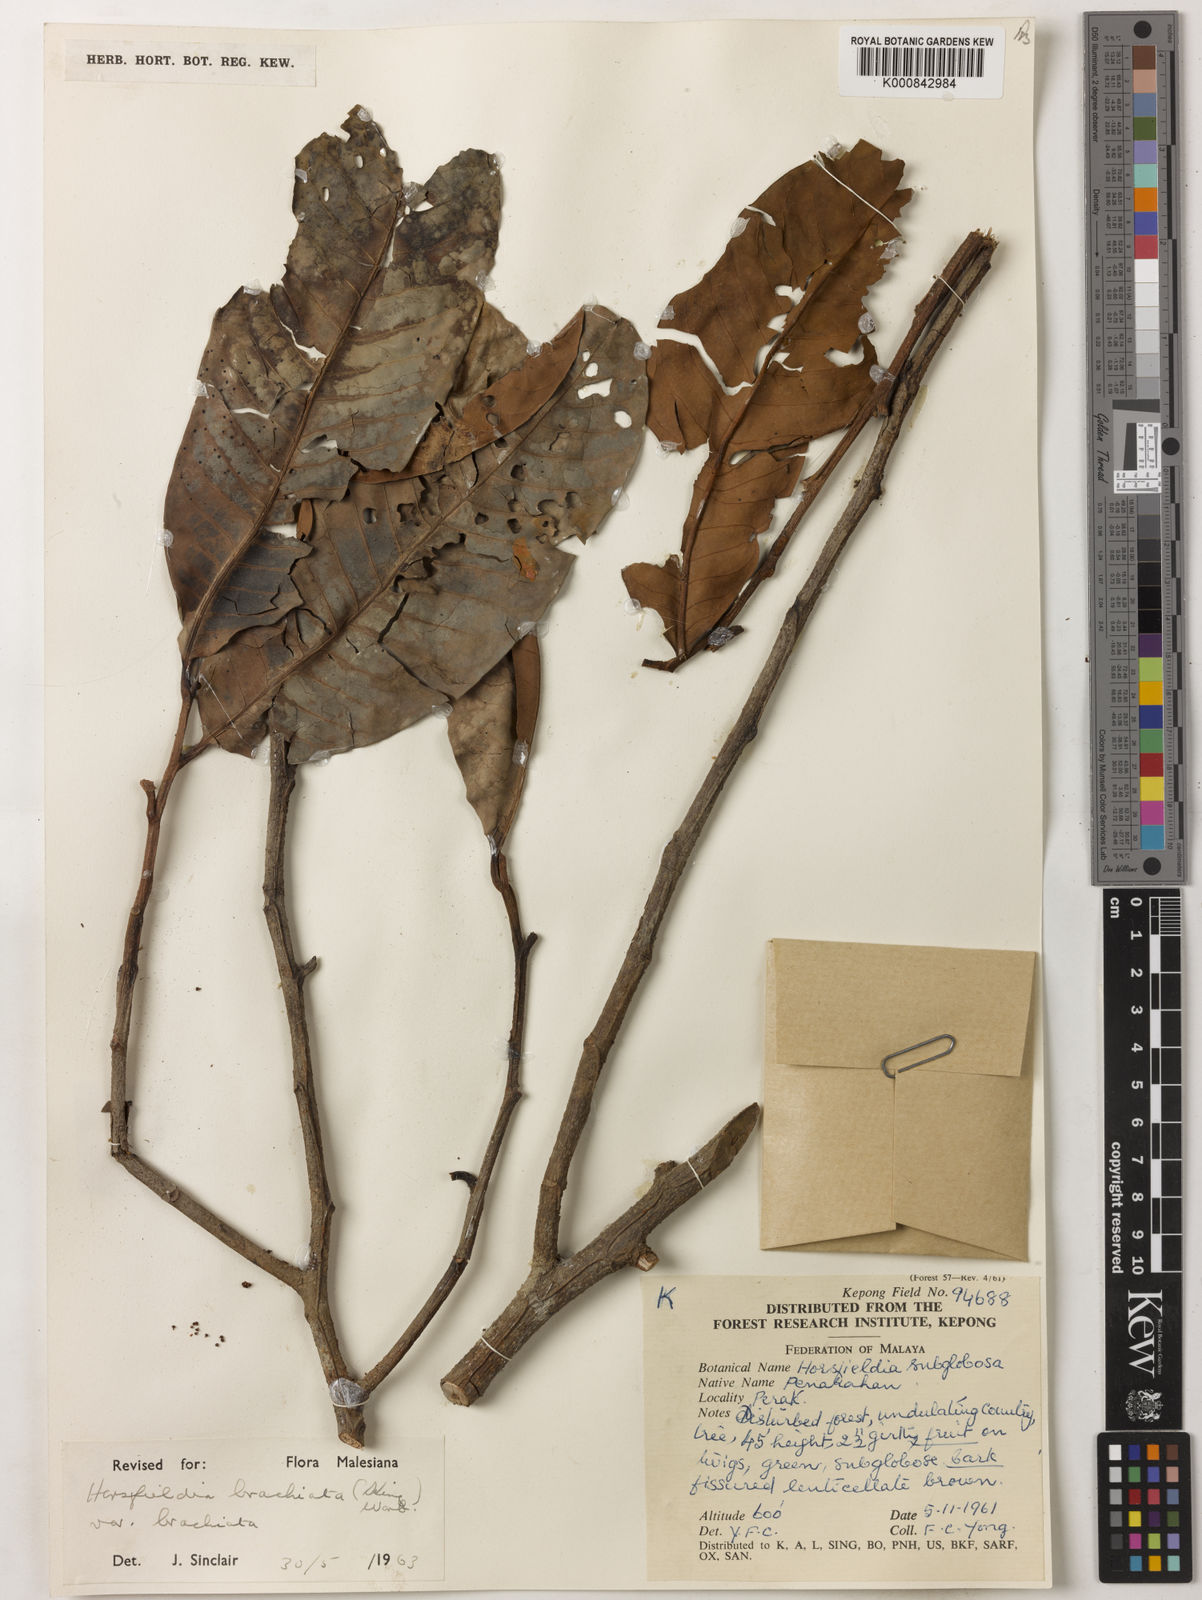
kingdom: Plantae
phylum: Tracheophyta
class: Magnoliopsida
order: Magnoliales
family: Myristicaceae
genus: Horsfieldia
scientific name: Horsfieldia brachiata
